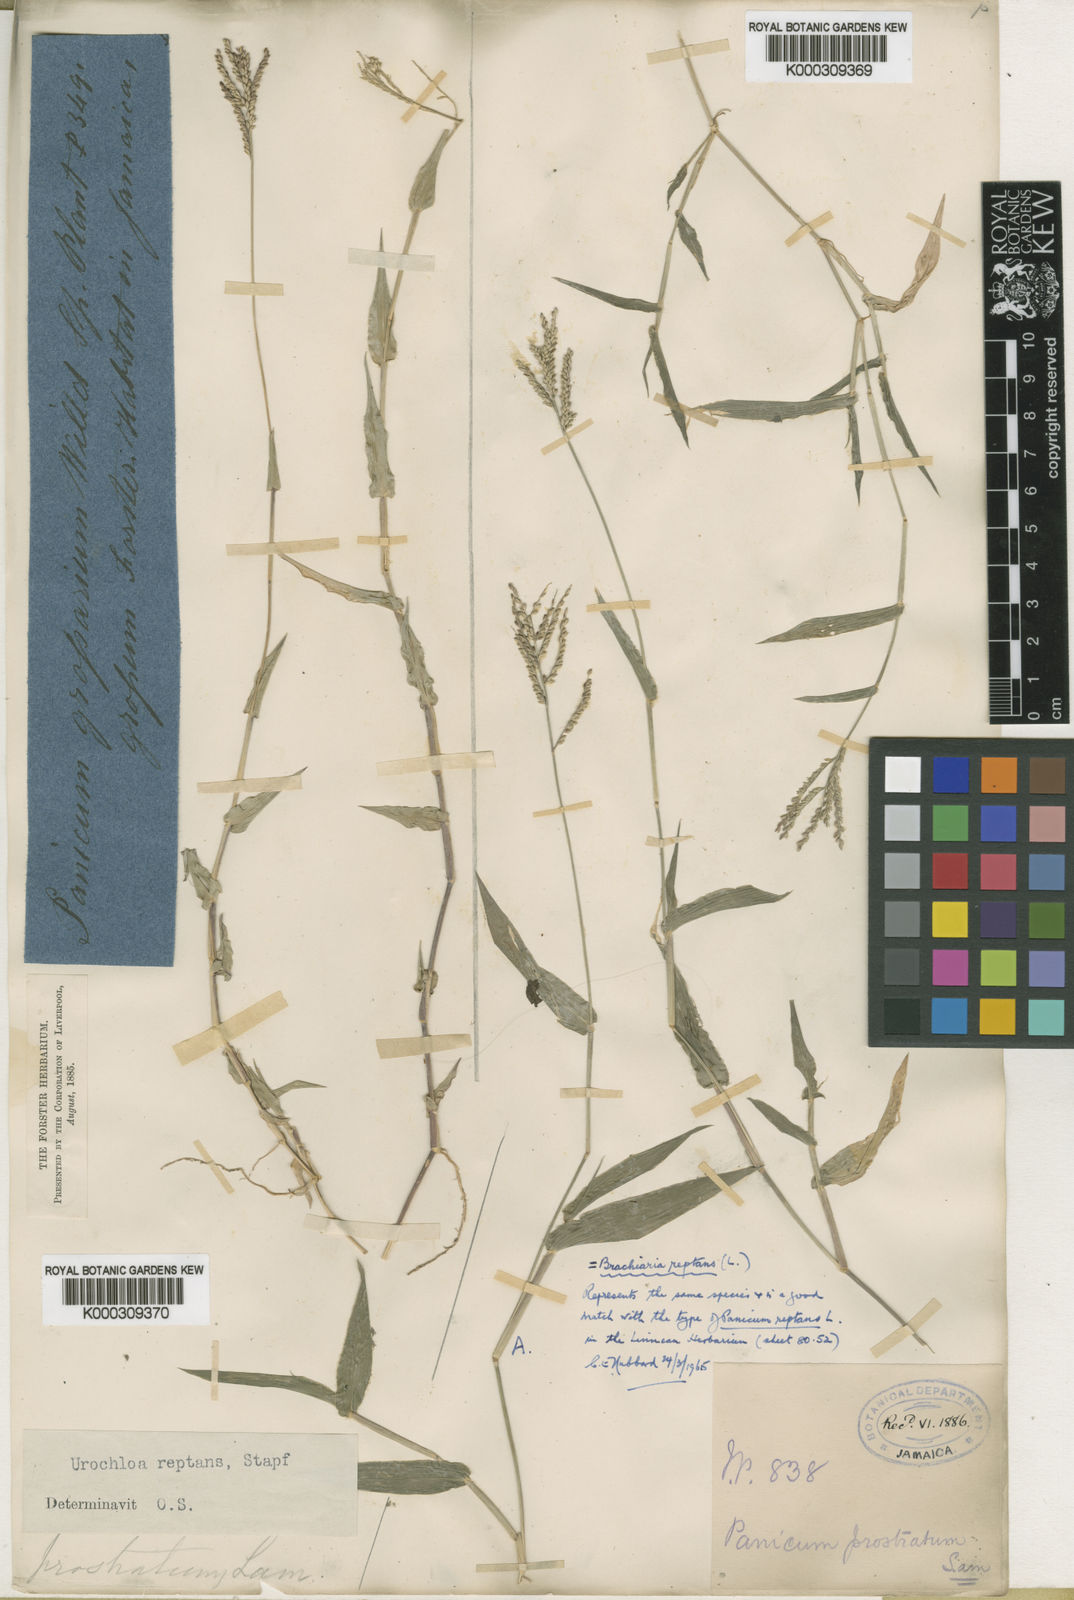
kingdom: Plantae
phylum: Tracheophyta
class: Liliopsida
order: Poales
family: Poaceae
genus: Urochloa
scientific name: Urochloa reptans
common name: Sprawling signalgrass
